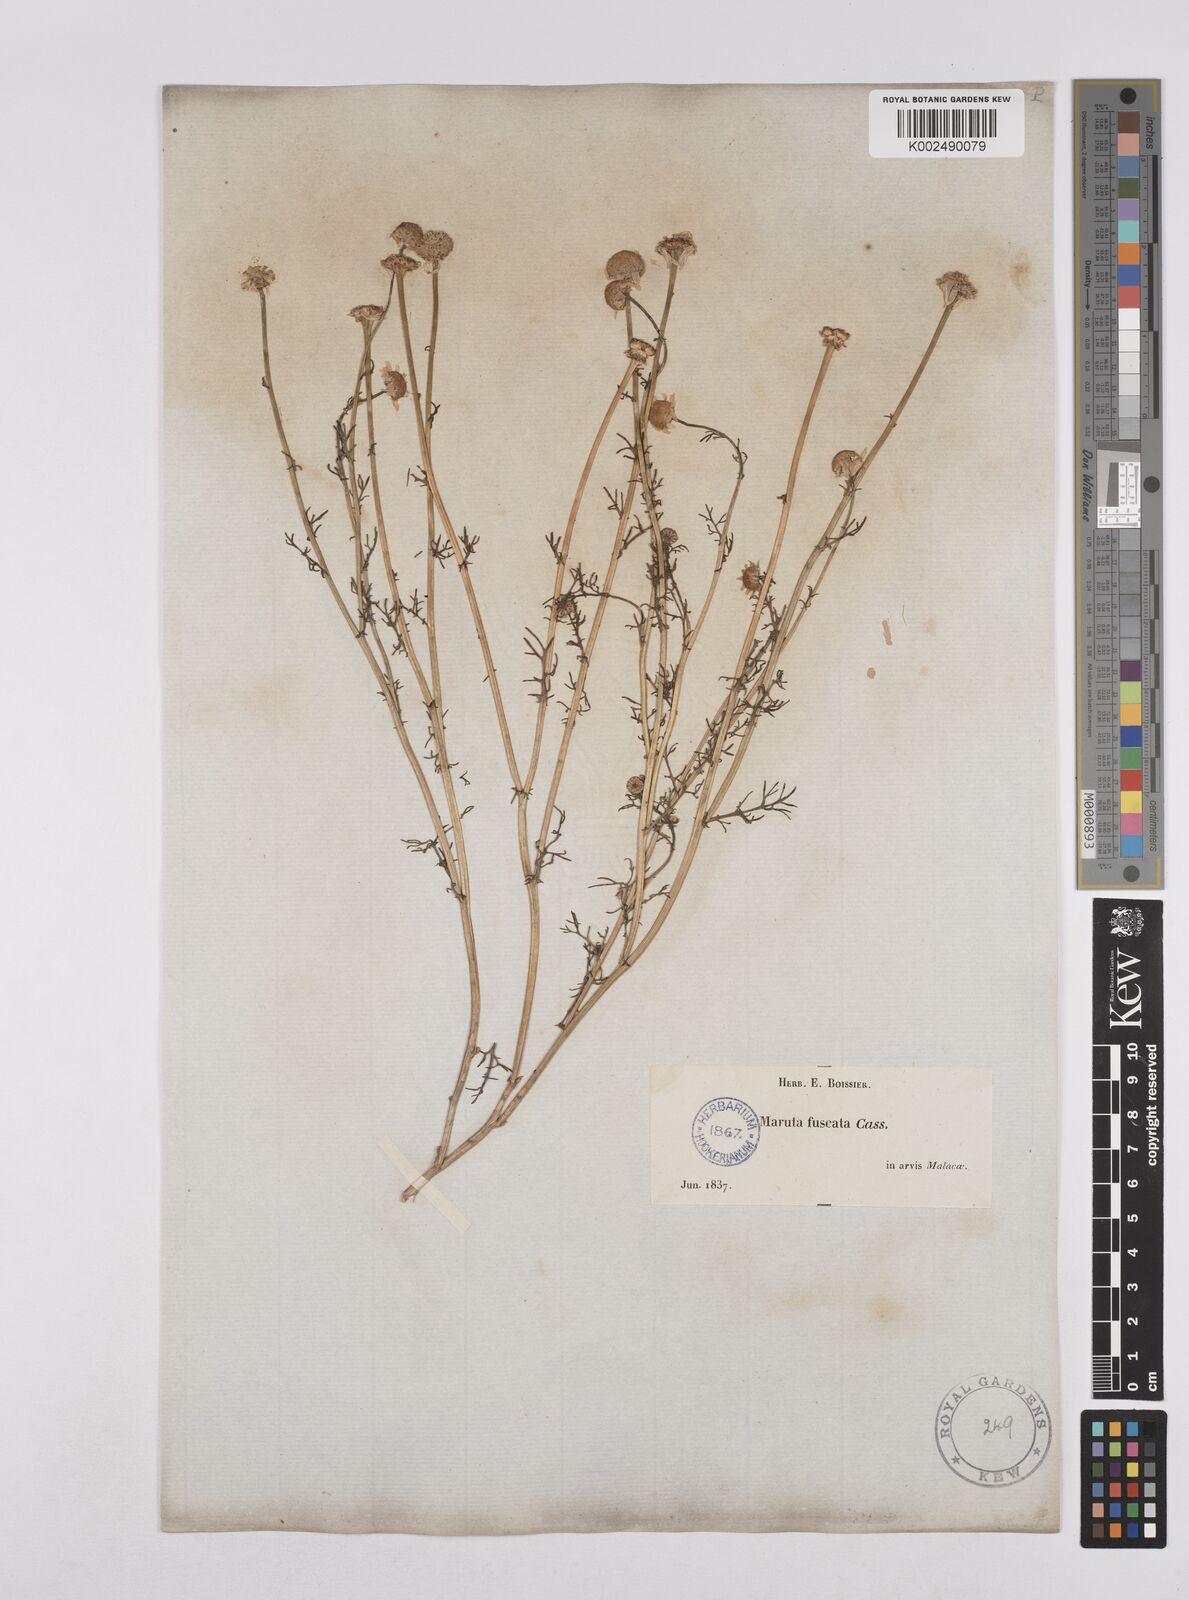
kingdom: Plantae
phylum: Tracheophyta
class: Magnoliopsida
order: Asterales
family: Asteraceae
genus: Chamaemelum
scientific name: Chamaemelum fuscatum
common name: Chamomile
